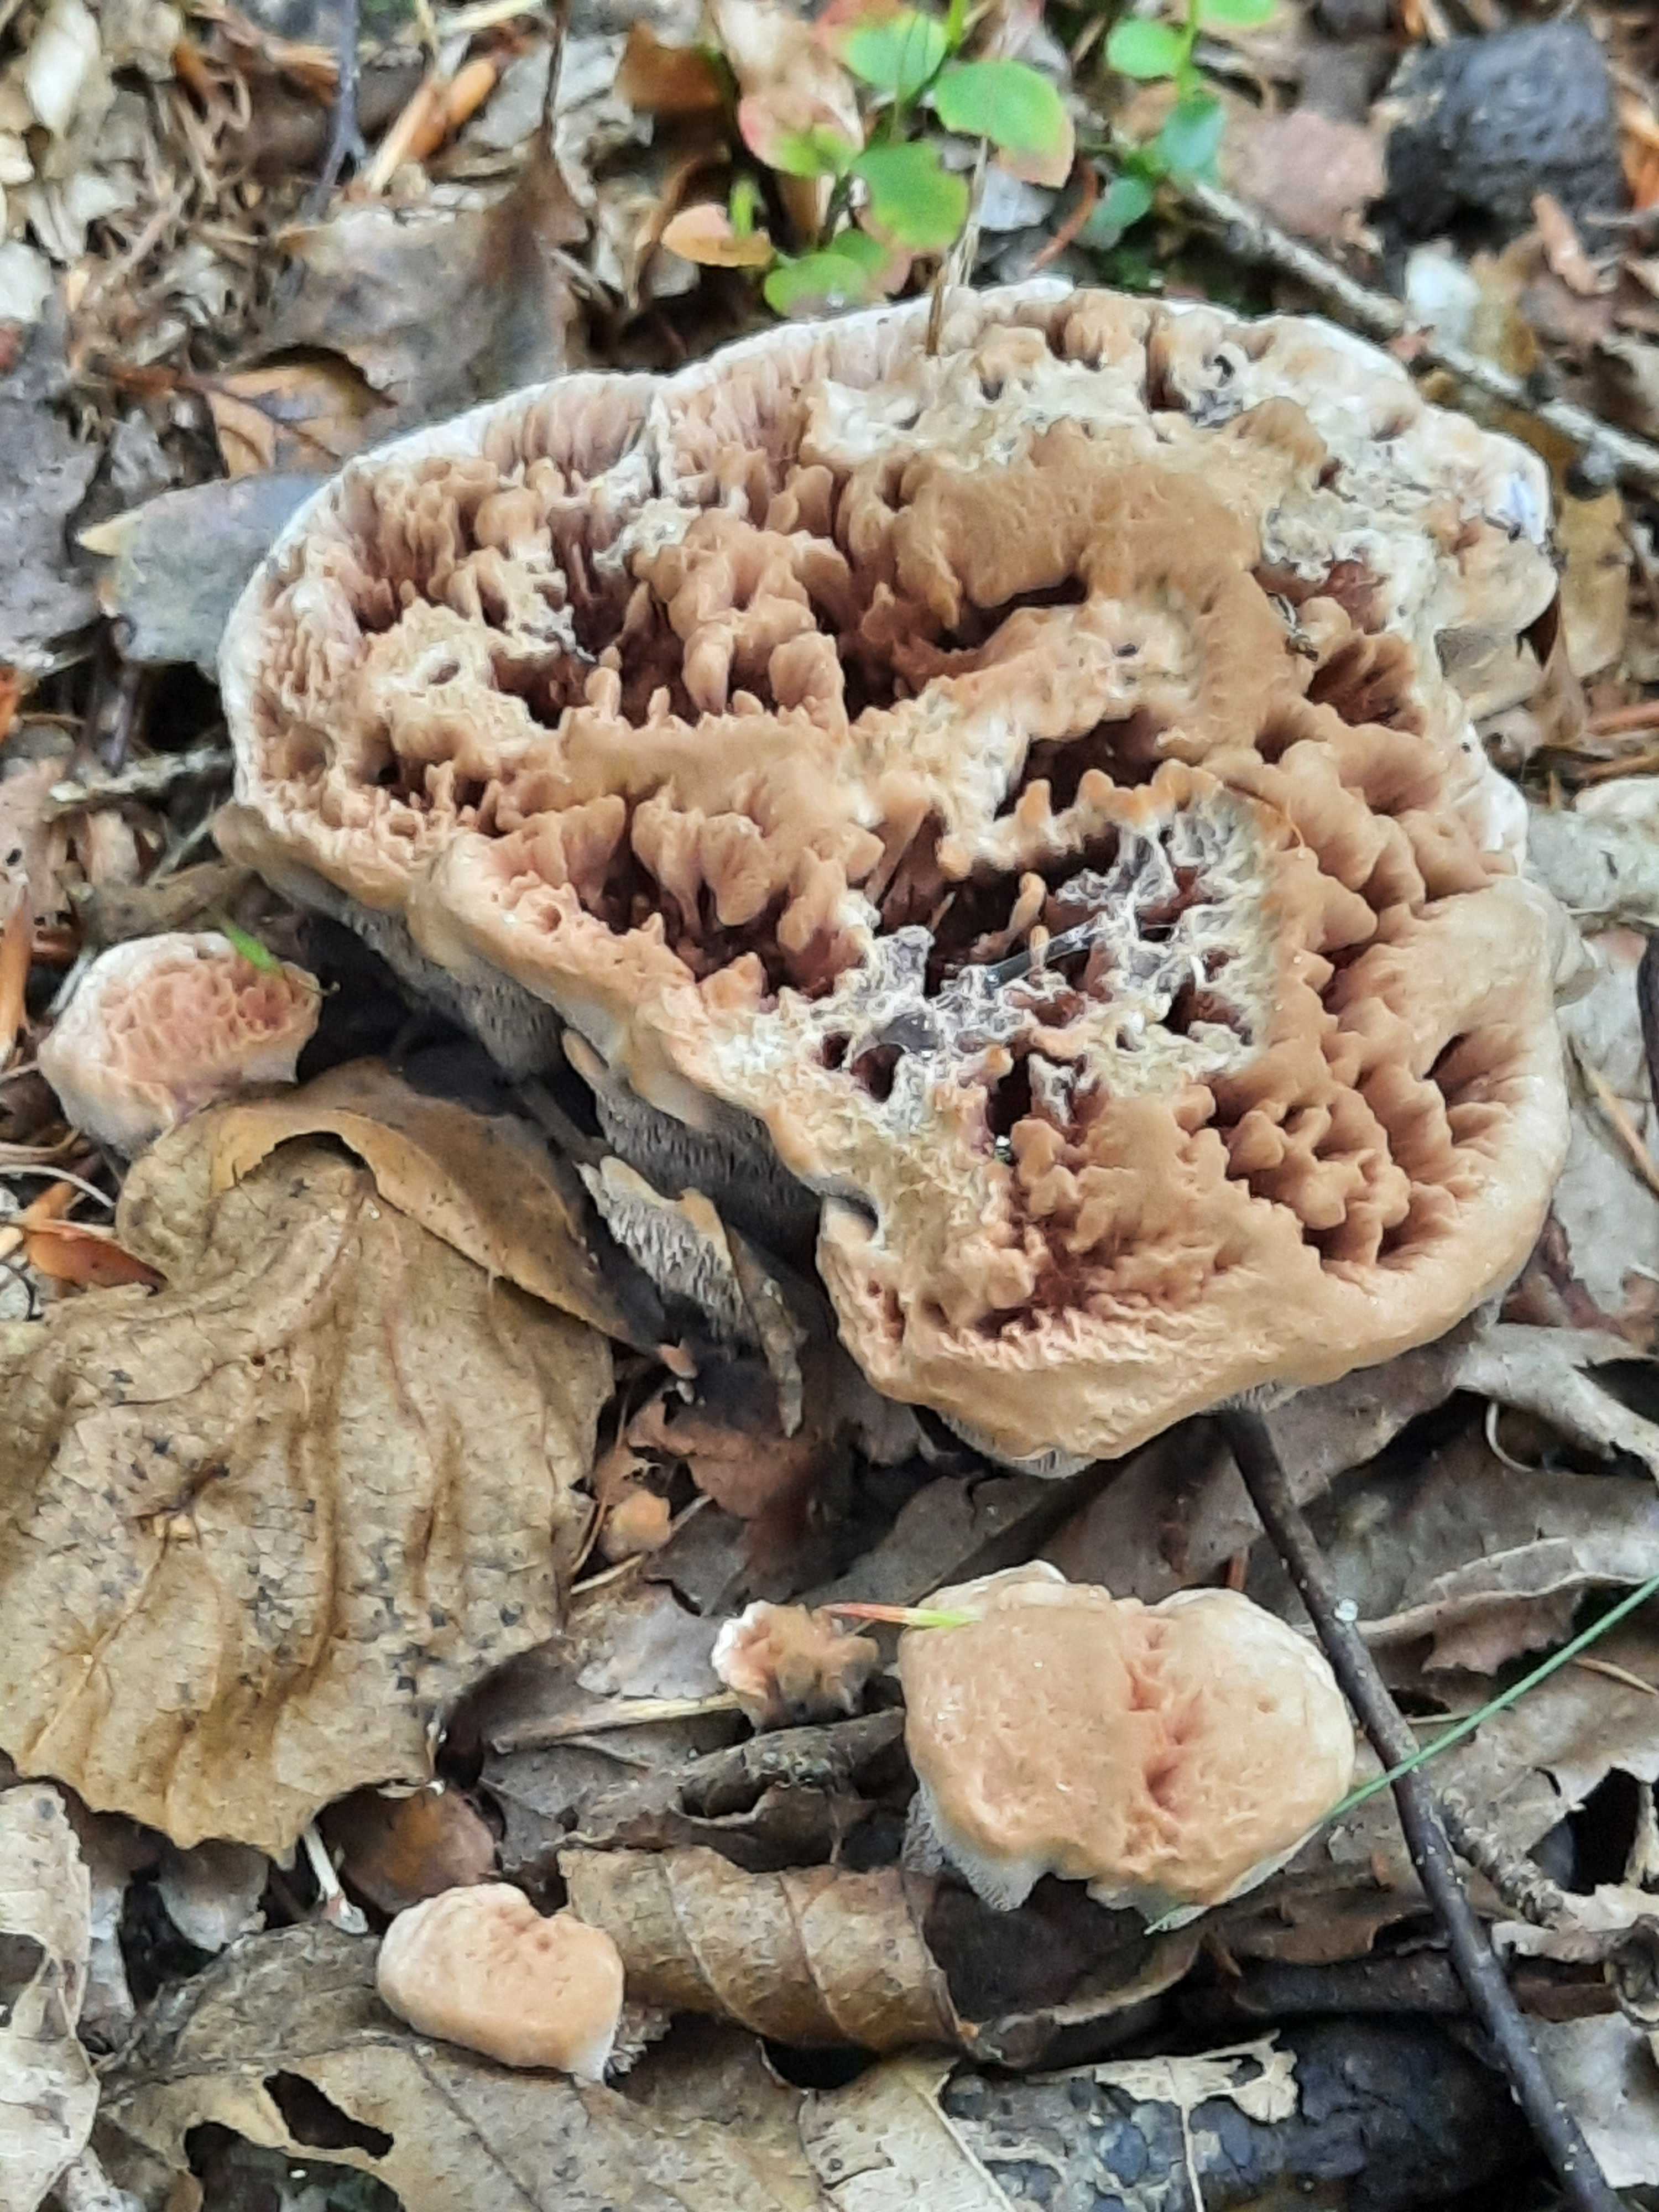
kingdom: Fungi
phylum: Basidiomycota
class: Agaricomycetes
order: Thelephorales
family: Bankeraceae
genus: Hydnellum
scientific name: Hydnellum concrescens
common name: bæltet korkpigsvamp
